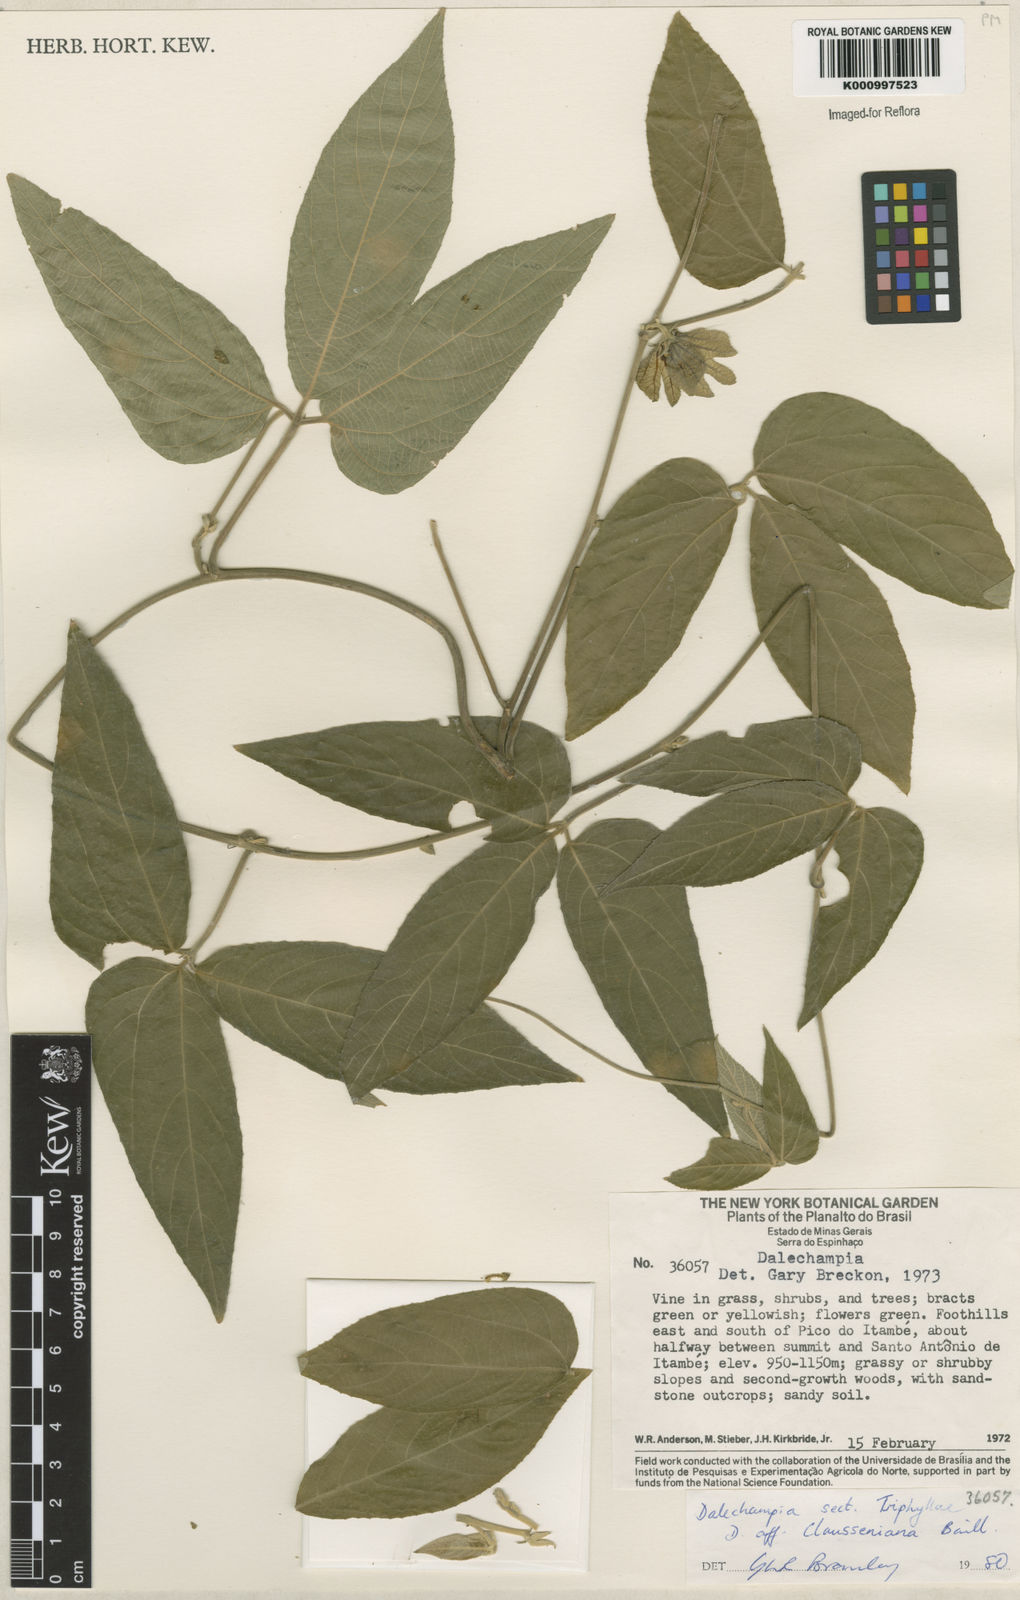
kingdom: Plantae
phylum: Tracheophyta
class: Magnoliopsida
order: Malpighiales
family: Euphorbiaceae
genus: Dalechampia
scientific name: Dalechampia clausseniana
